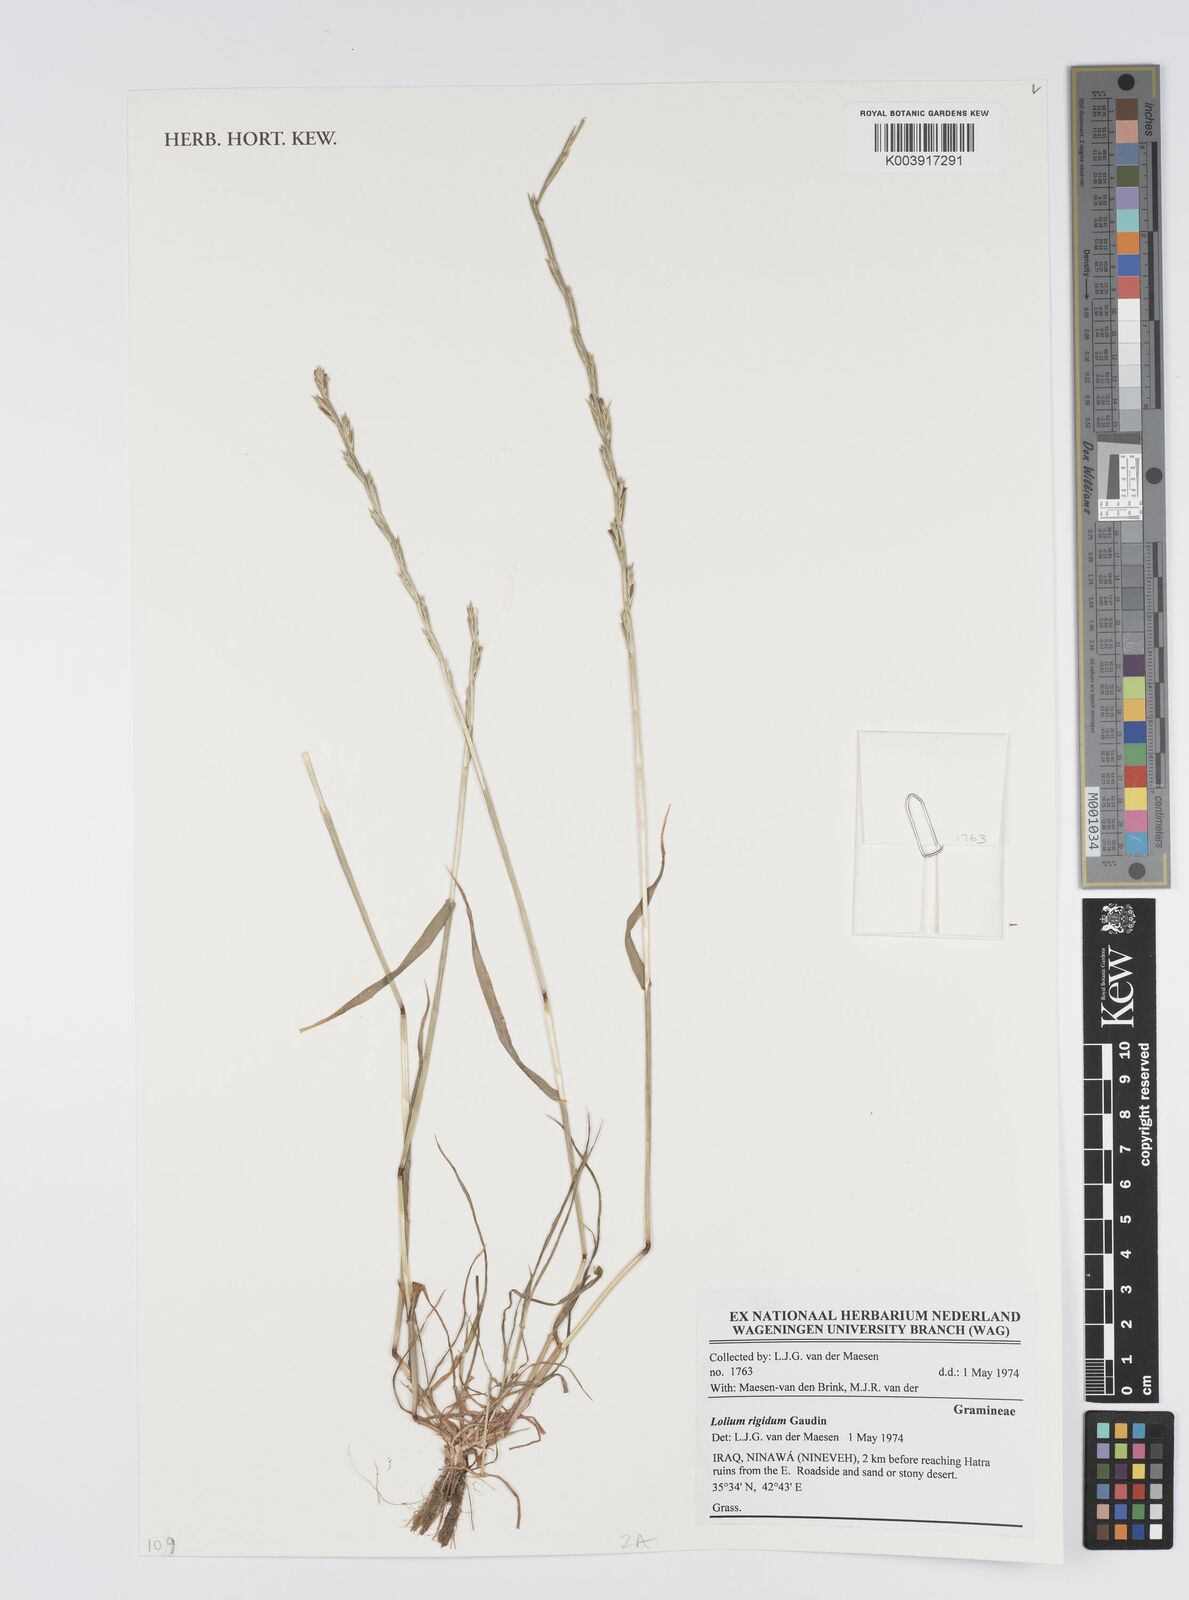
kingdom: Plantae
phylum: Tracheophyta
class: Liliopsida
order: Poales
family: Poaceae
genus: Lolium
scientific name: Lolium rigidum
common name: Wimmera ryegrass
